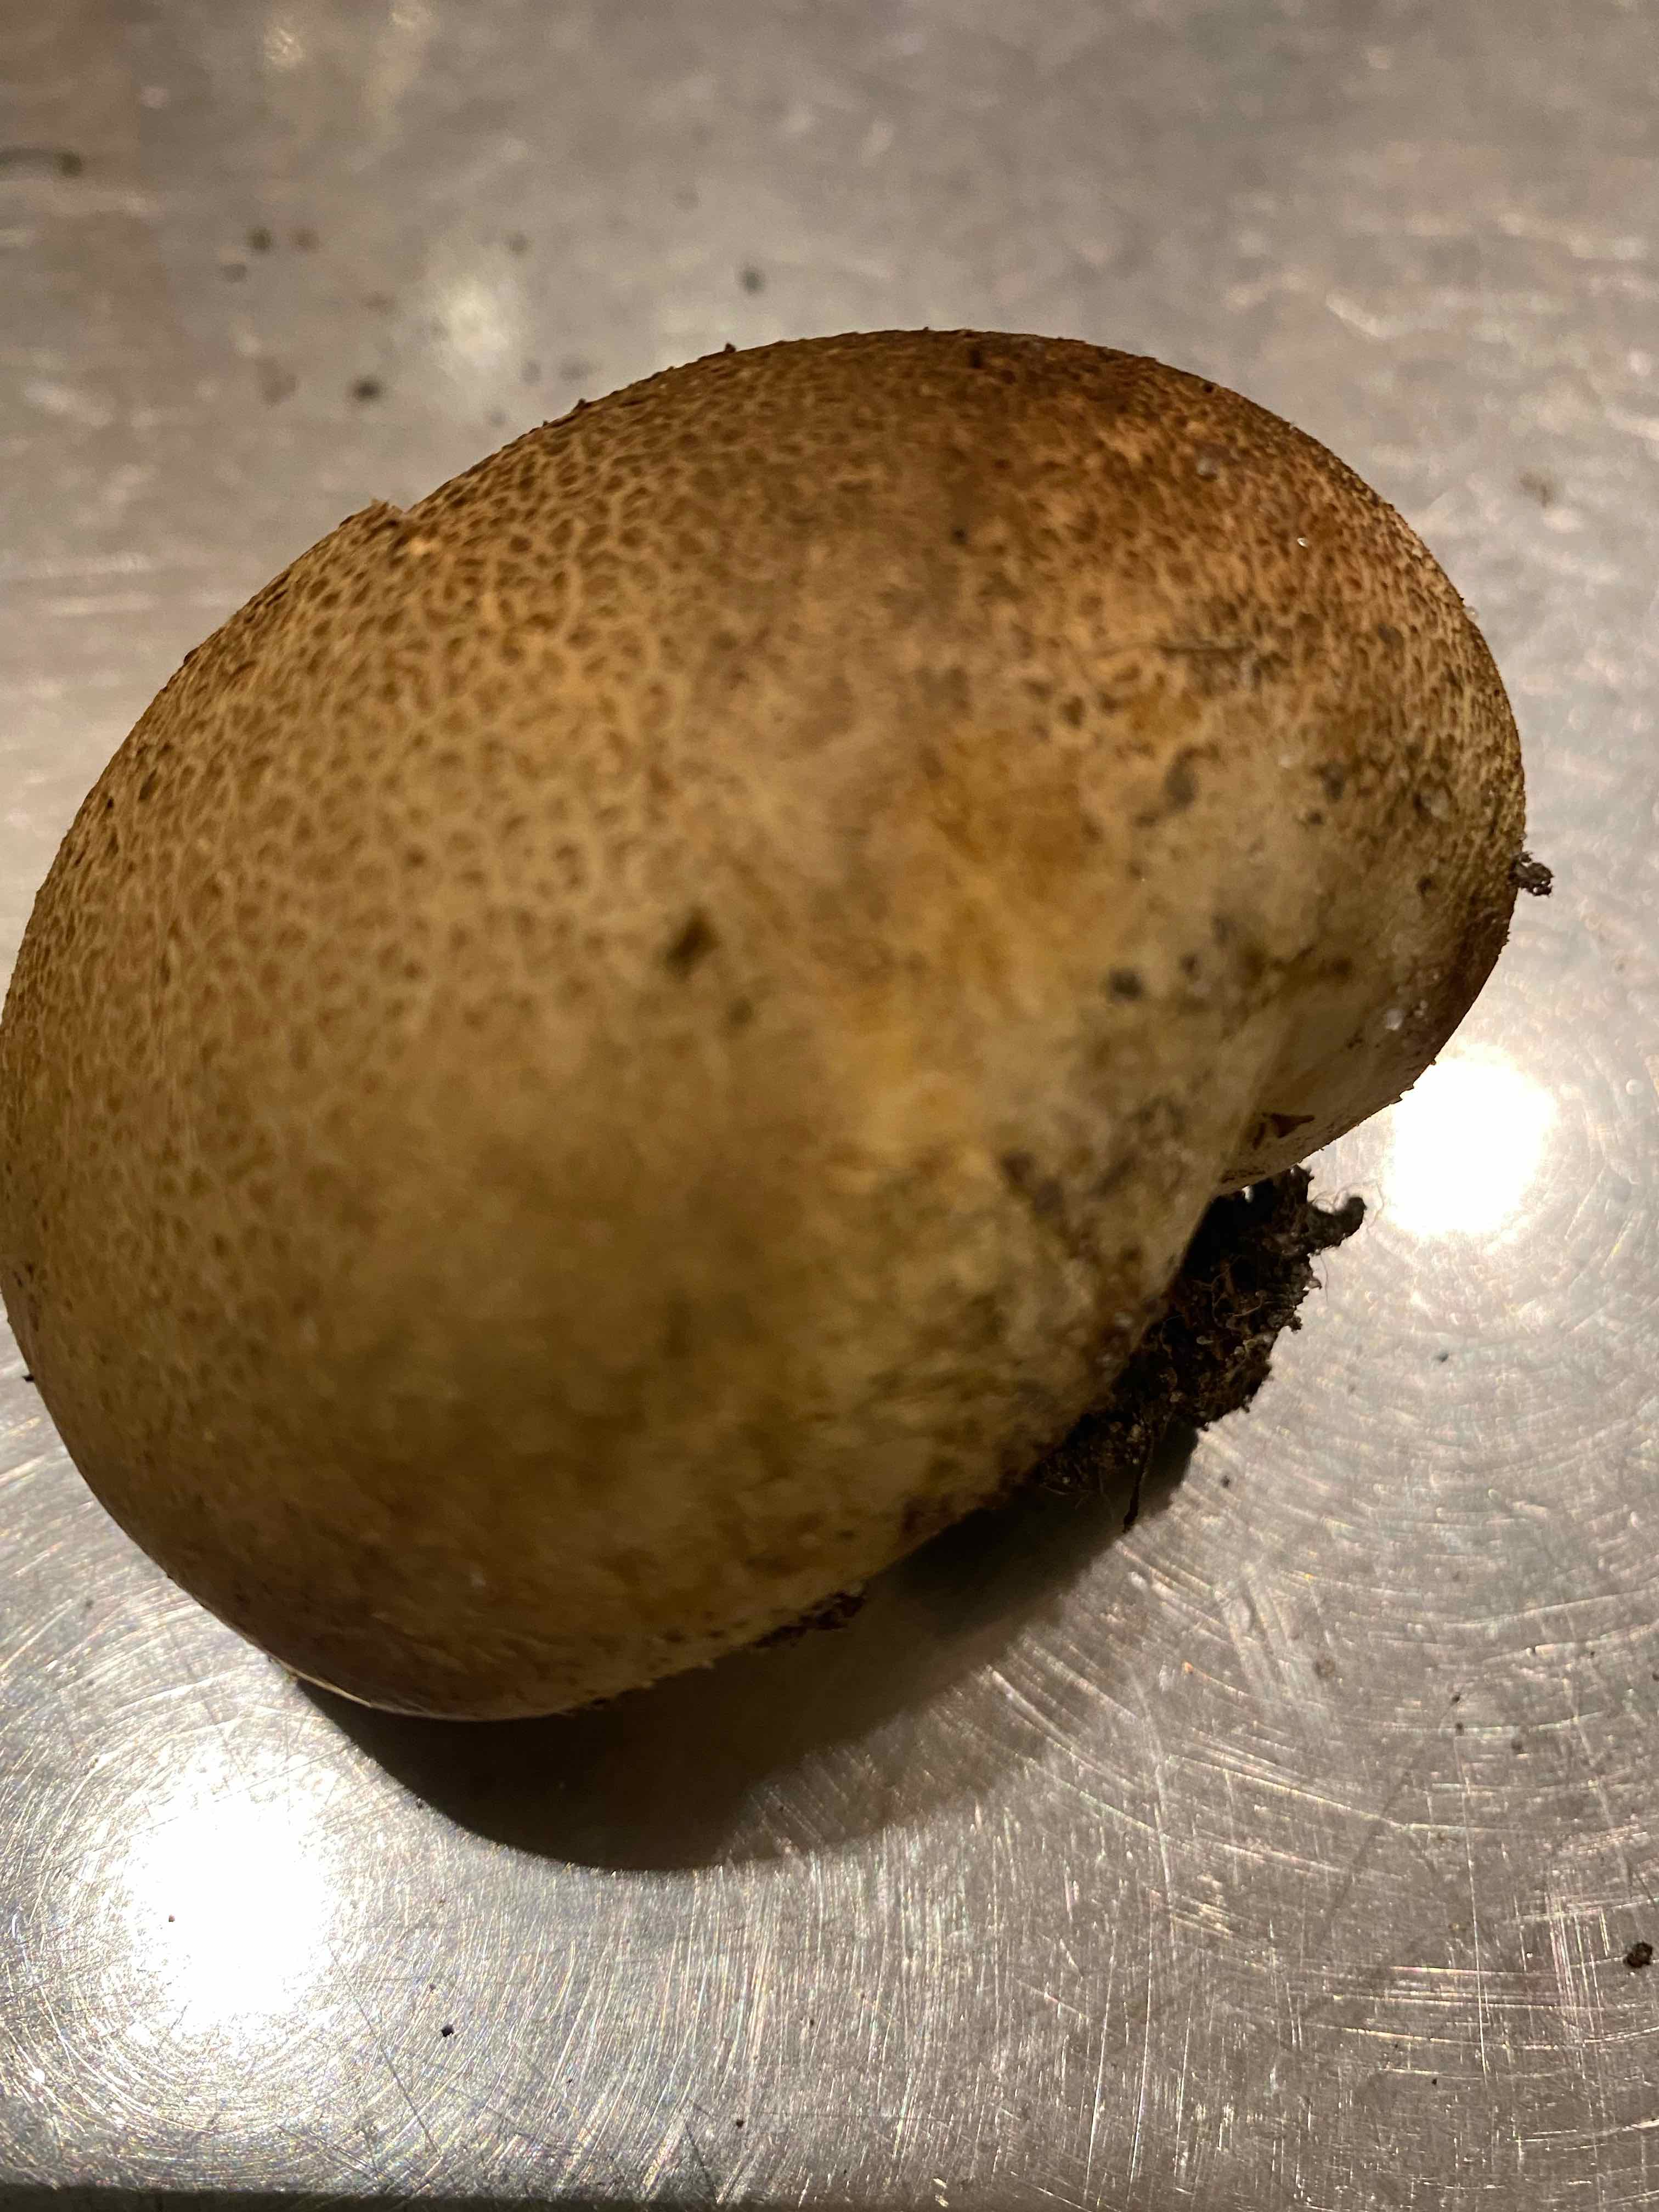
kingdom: Fungi
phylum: Basidiomycota
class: Agaricomycetes
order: Boletales
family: Sclerodermataceae
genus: Scleroderma
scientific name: Scleroderma
